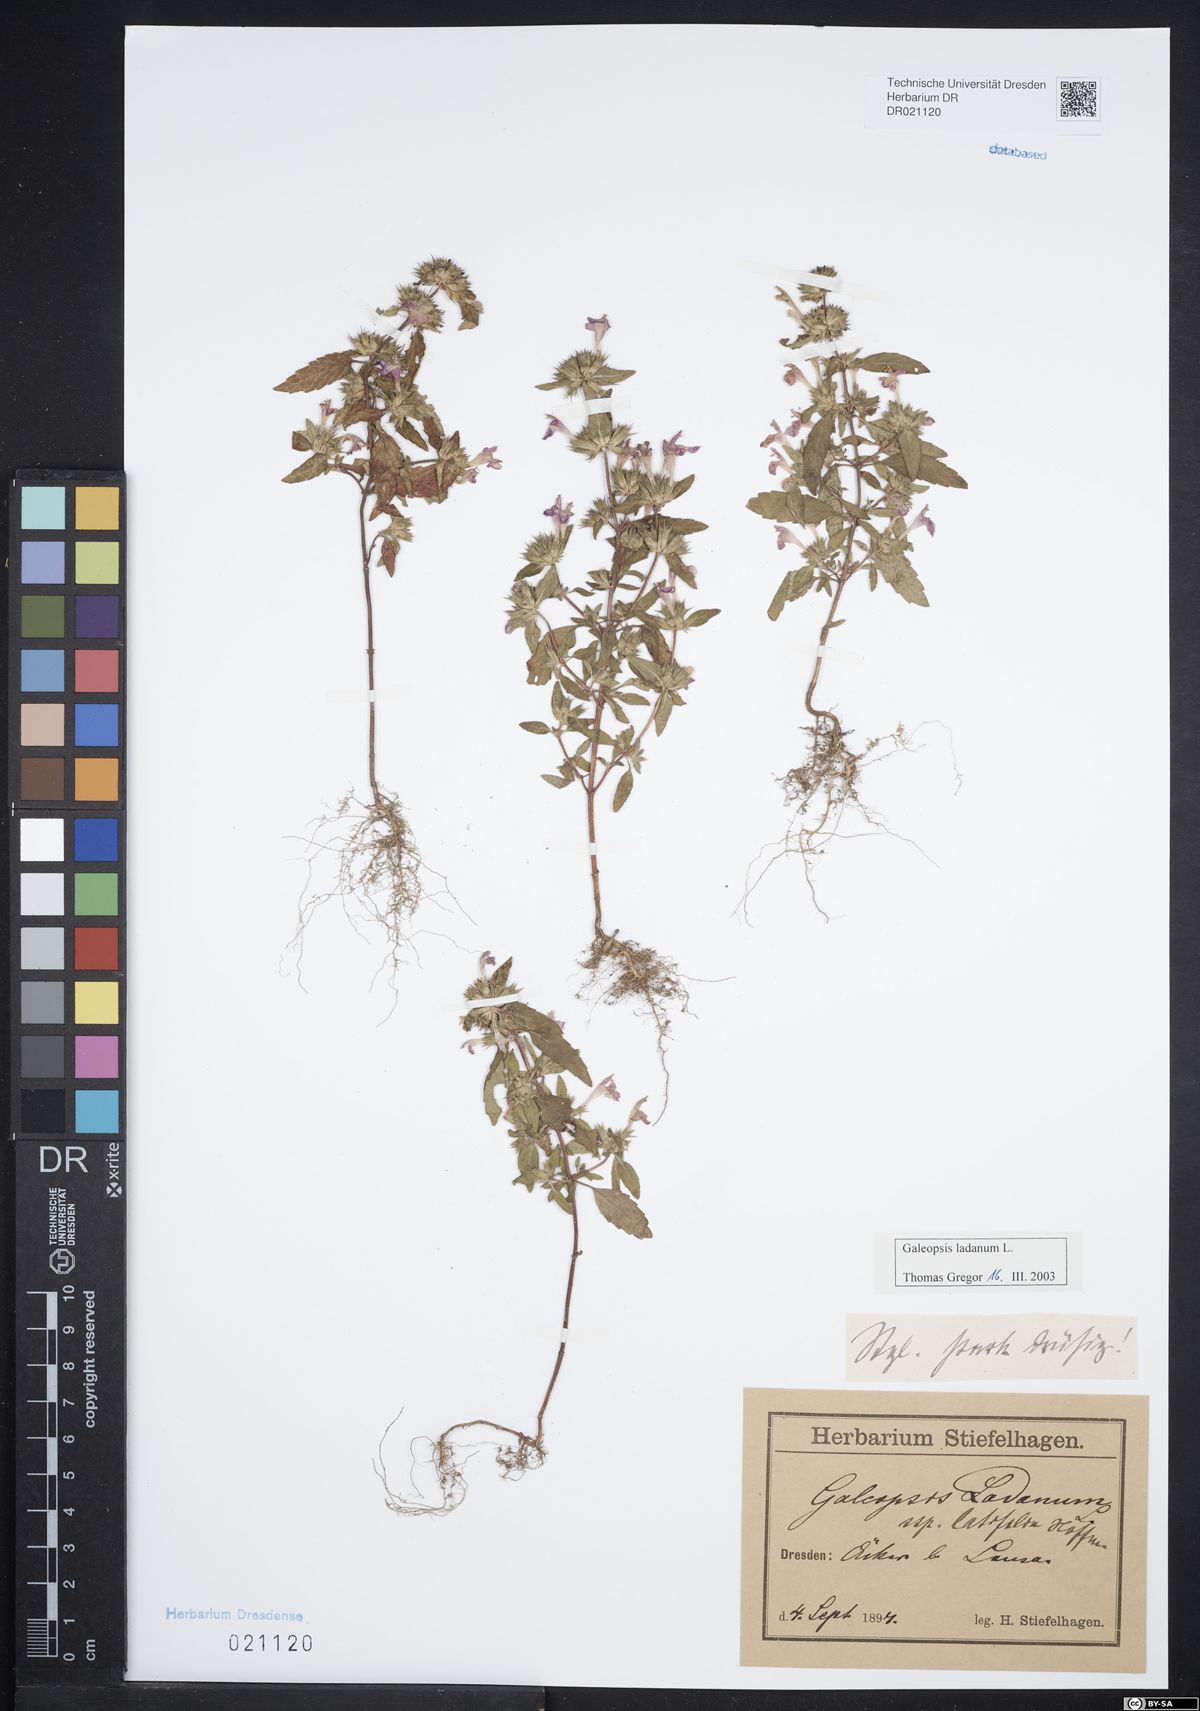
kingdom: Plantae
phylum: Tracheophyta
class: Magnoliopsida
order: Lamiales
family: Lamiaceae
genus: Galeopsis
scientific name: Galeopsis ladanum
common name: Broad-leaved hemp-nettle
